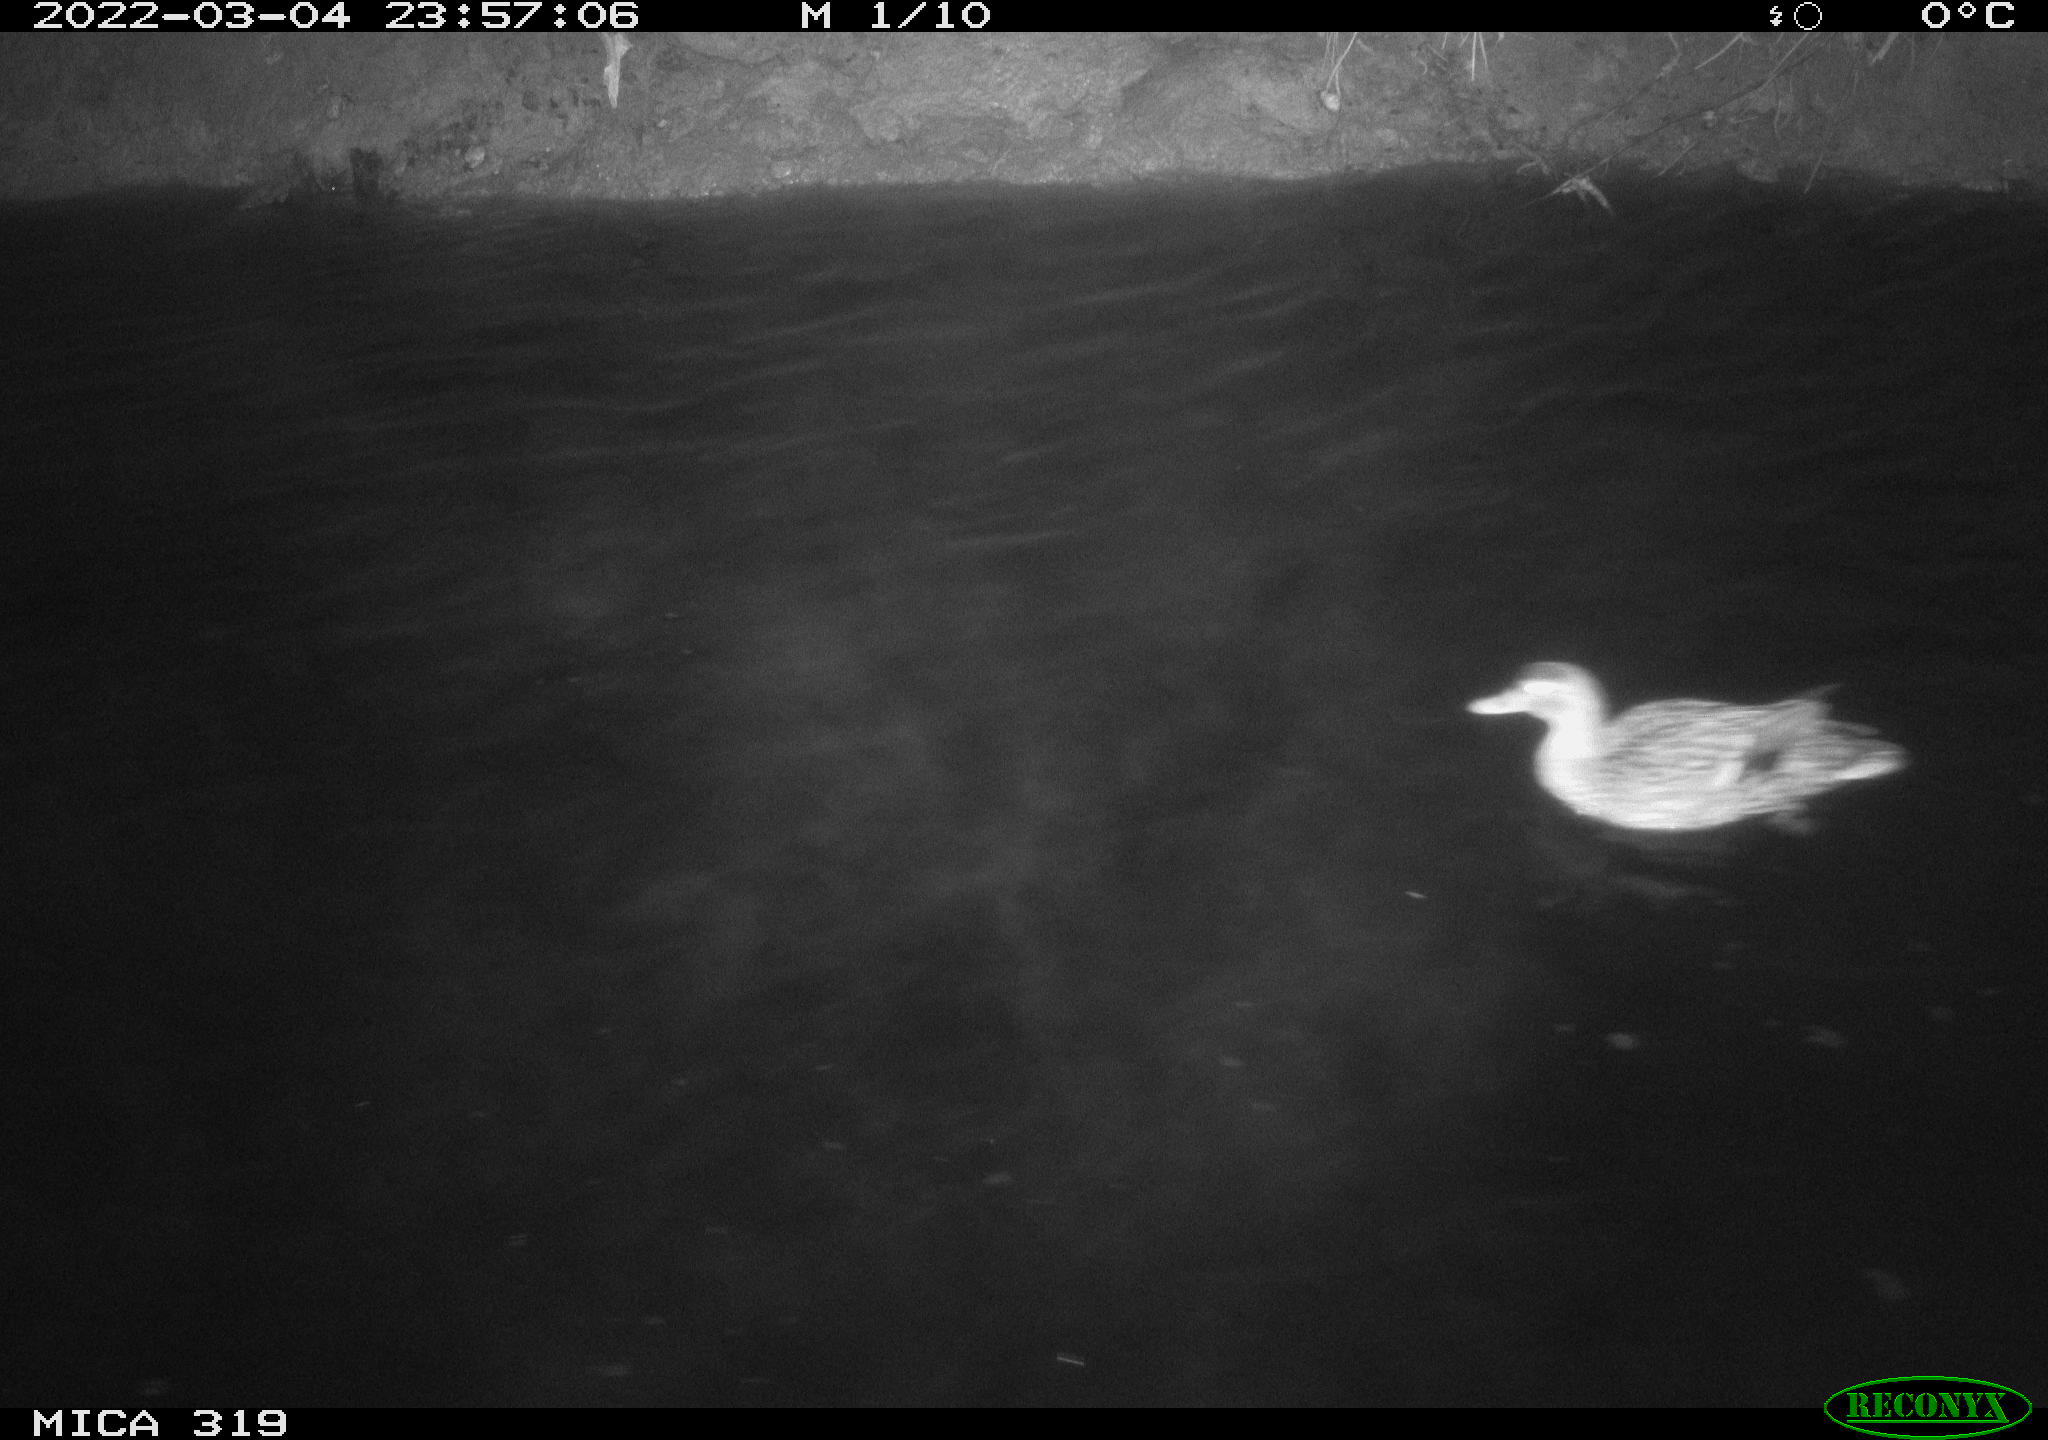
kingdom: Animalia
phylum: Chordata
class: Aves
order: Anseriformes
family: Anatidae
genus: Mareca
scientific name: Mareca strepera
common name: Gadwall
